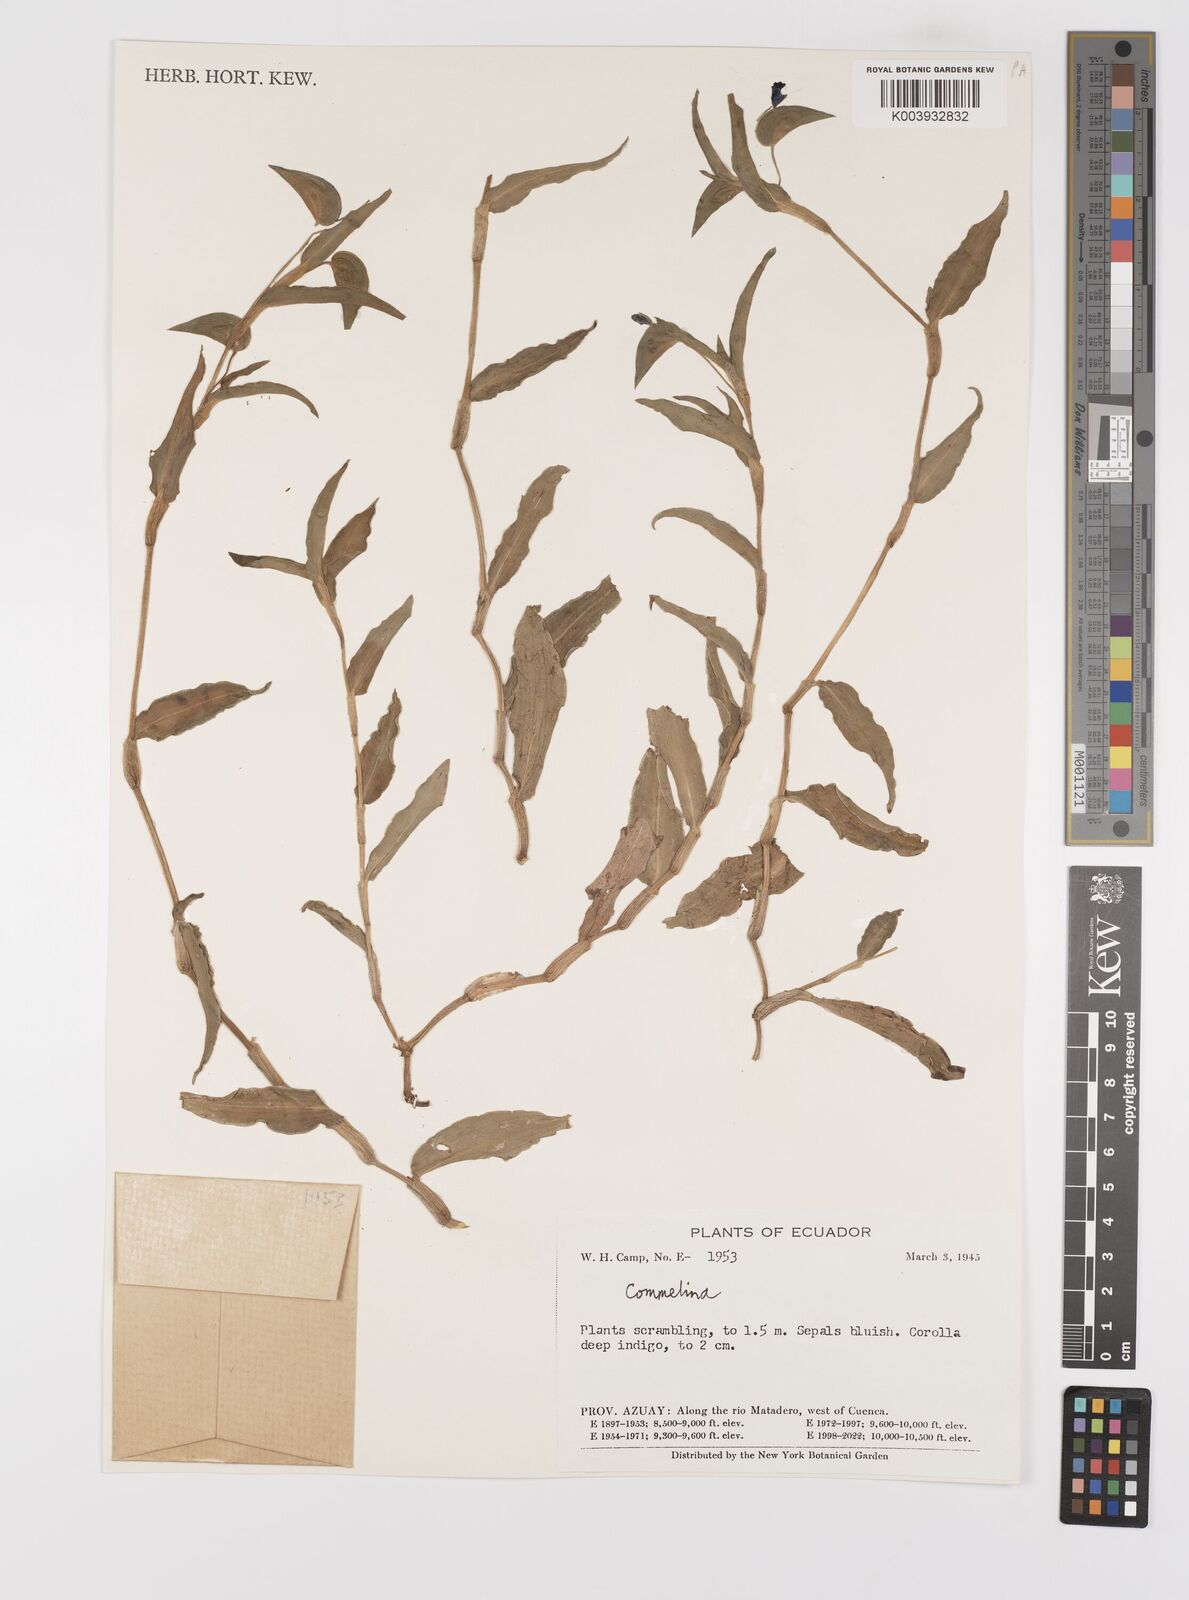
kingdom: Plantae
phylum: Tracheophyta
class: Liliopsida
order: Commelinales
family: Commelinaceae
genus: Commelina
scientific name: Commelina
